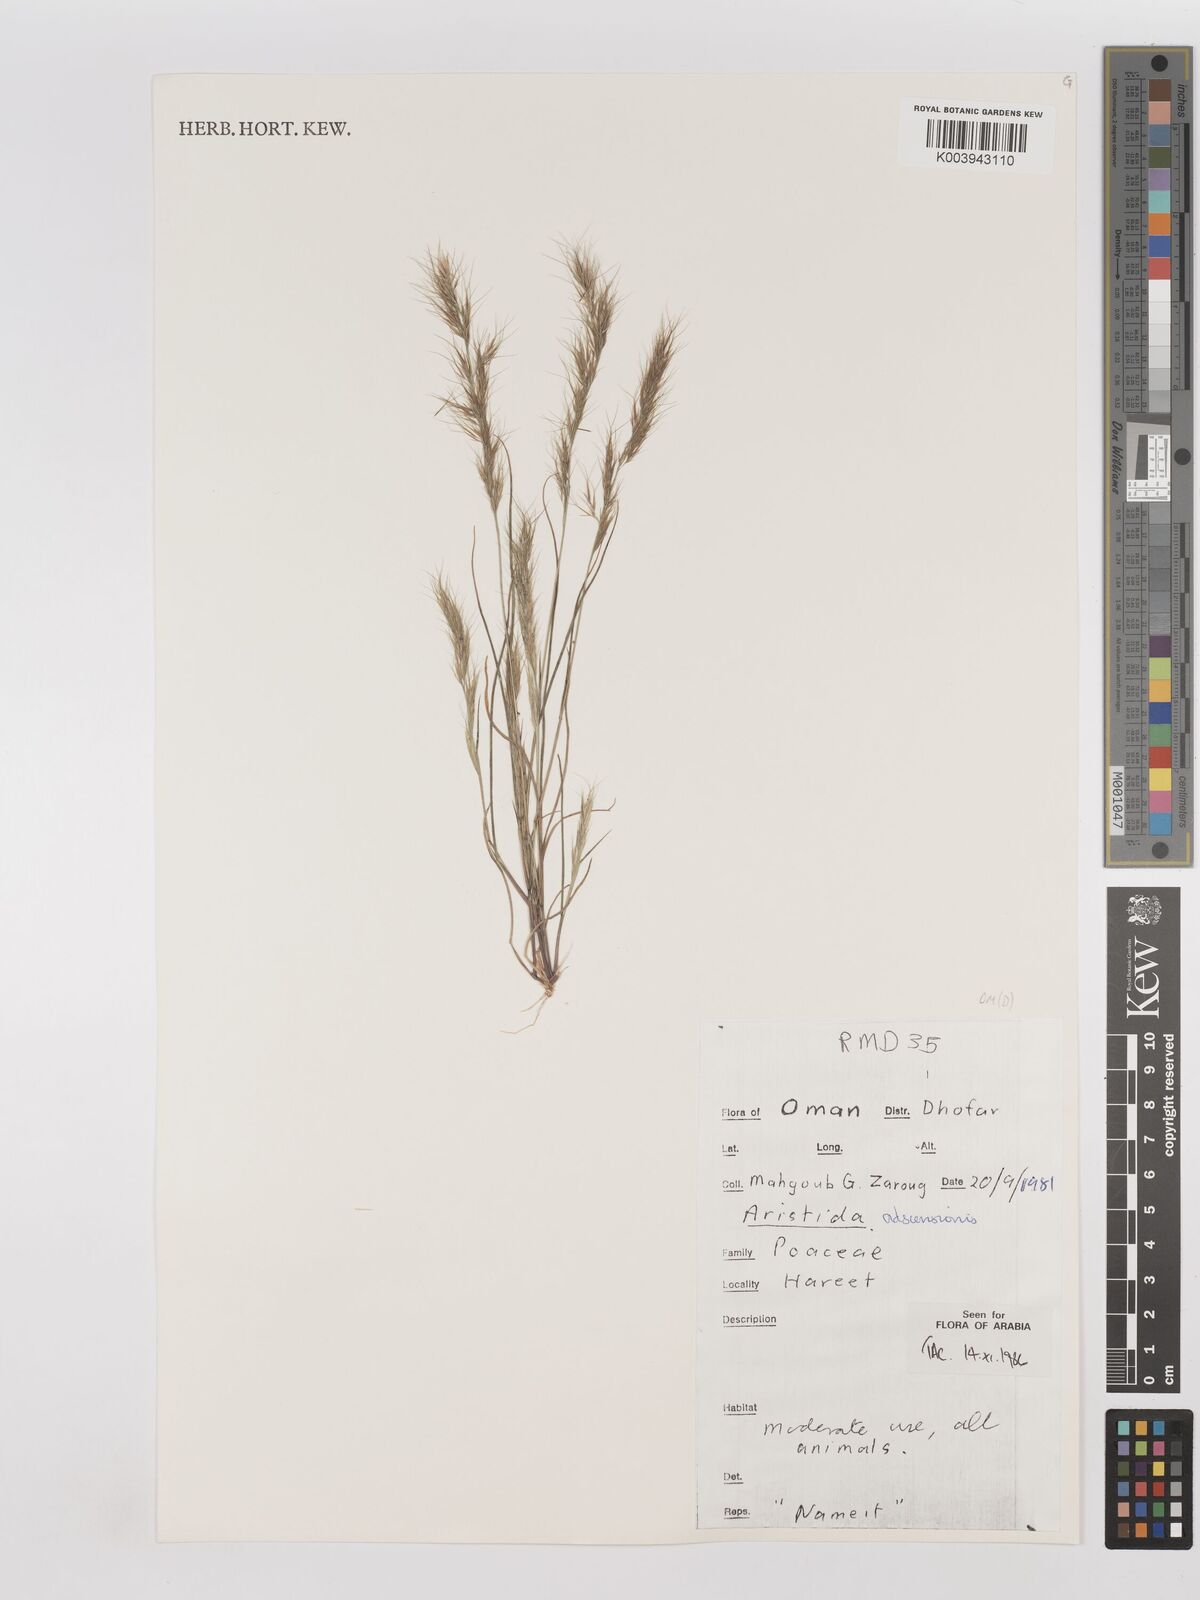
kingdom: Plantae
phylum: Tracheophyta
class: Liliopsida
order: Poales
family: Poaceae
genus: Aristida
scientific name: Aristida adscensionis
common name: Sixweeks threeawn
